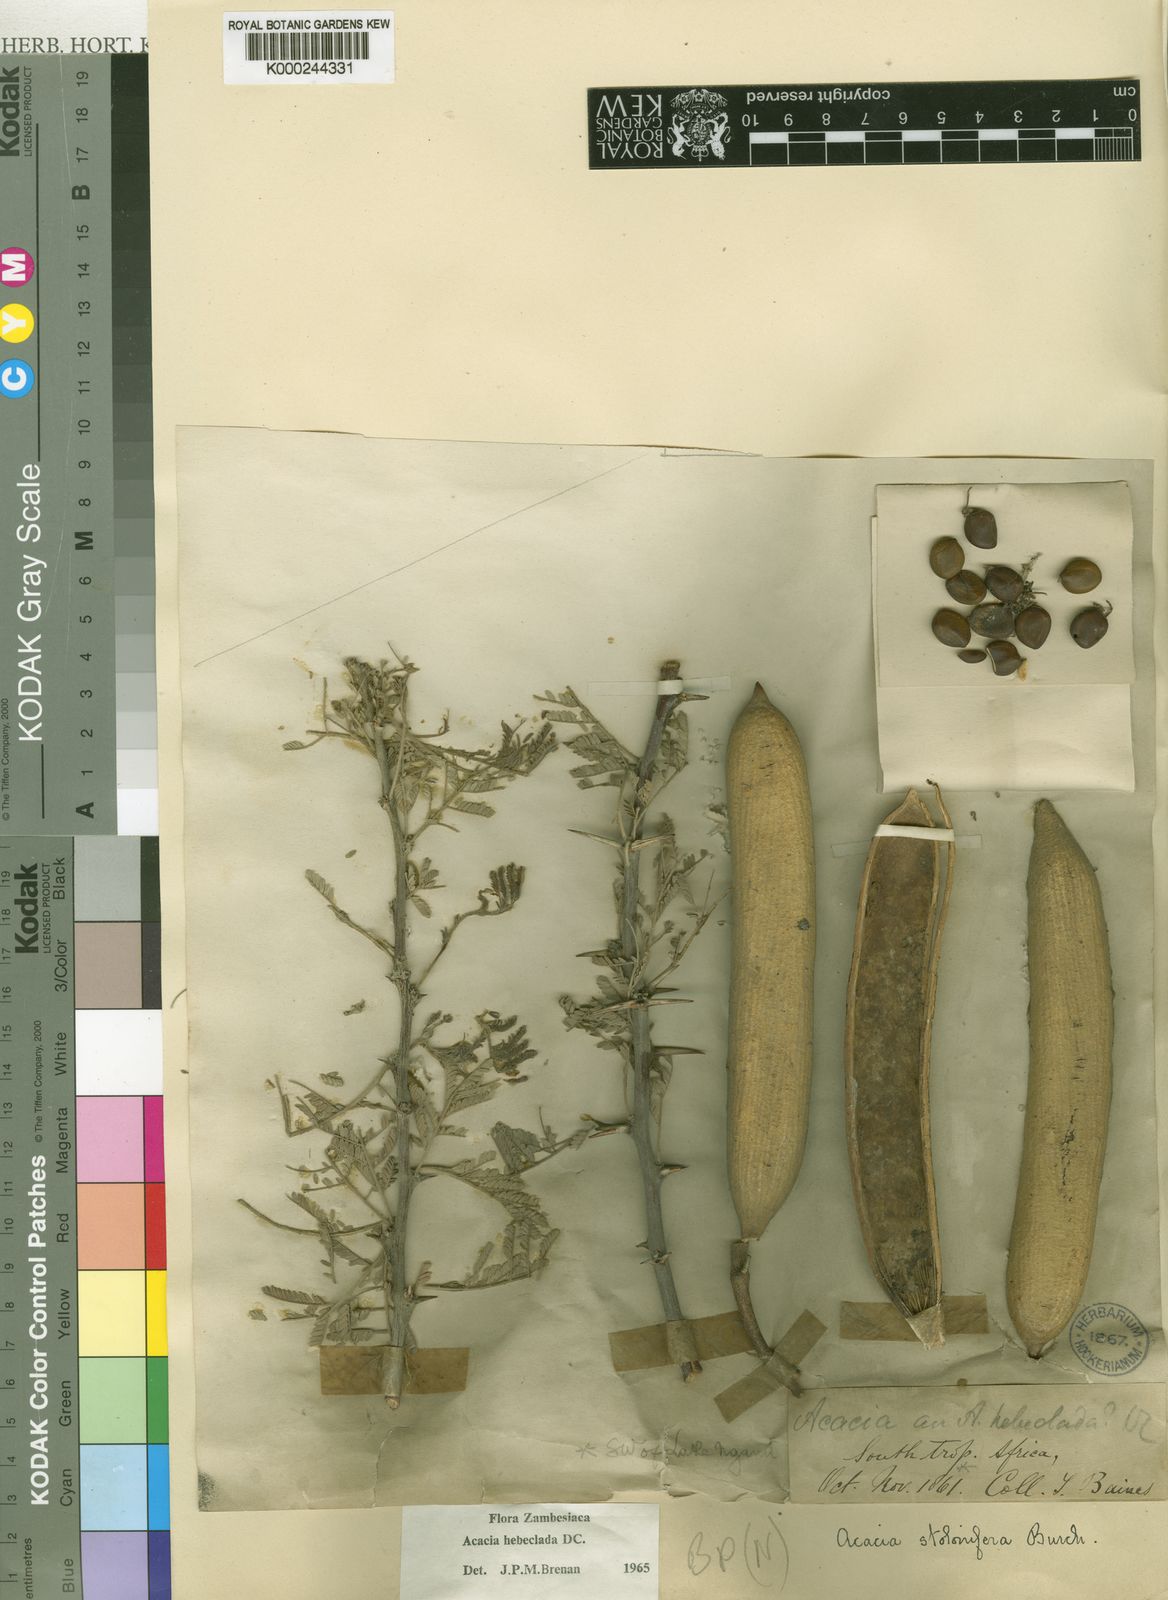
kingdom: Plantae
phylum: Tracheophyta
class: Magnoliopsida
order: Fabales
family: Fabaceae
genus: Vachellia
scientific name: Vachellia hebeclada
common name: Candle thorn
